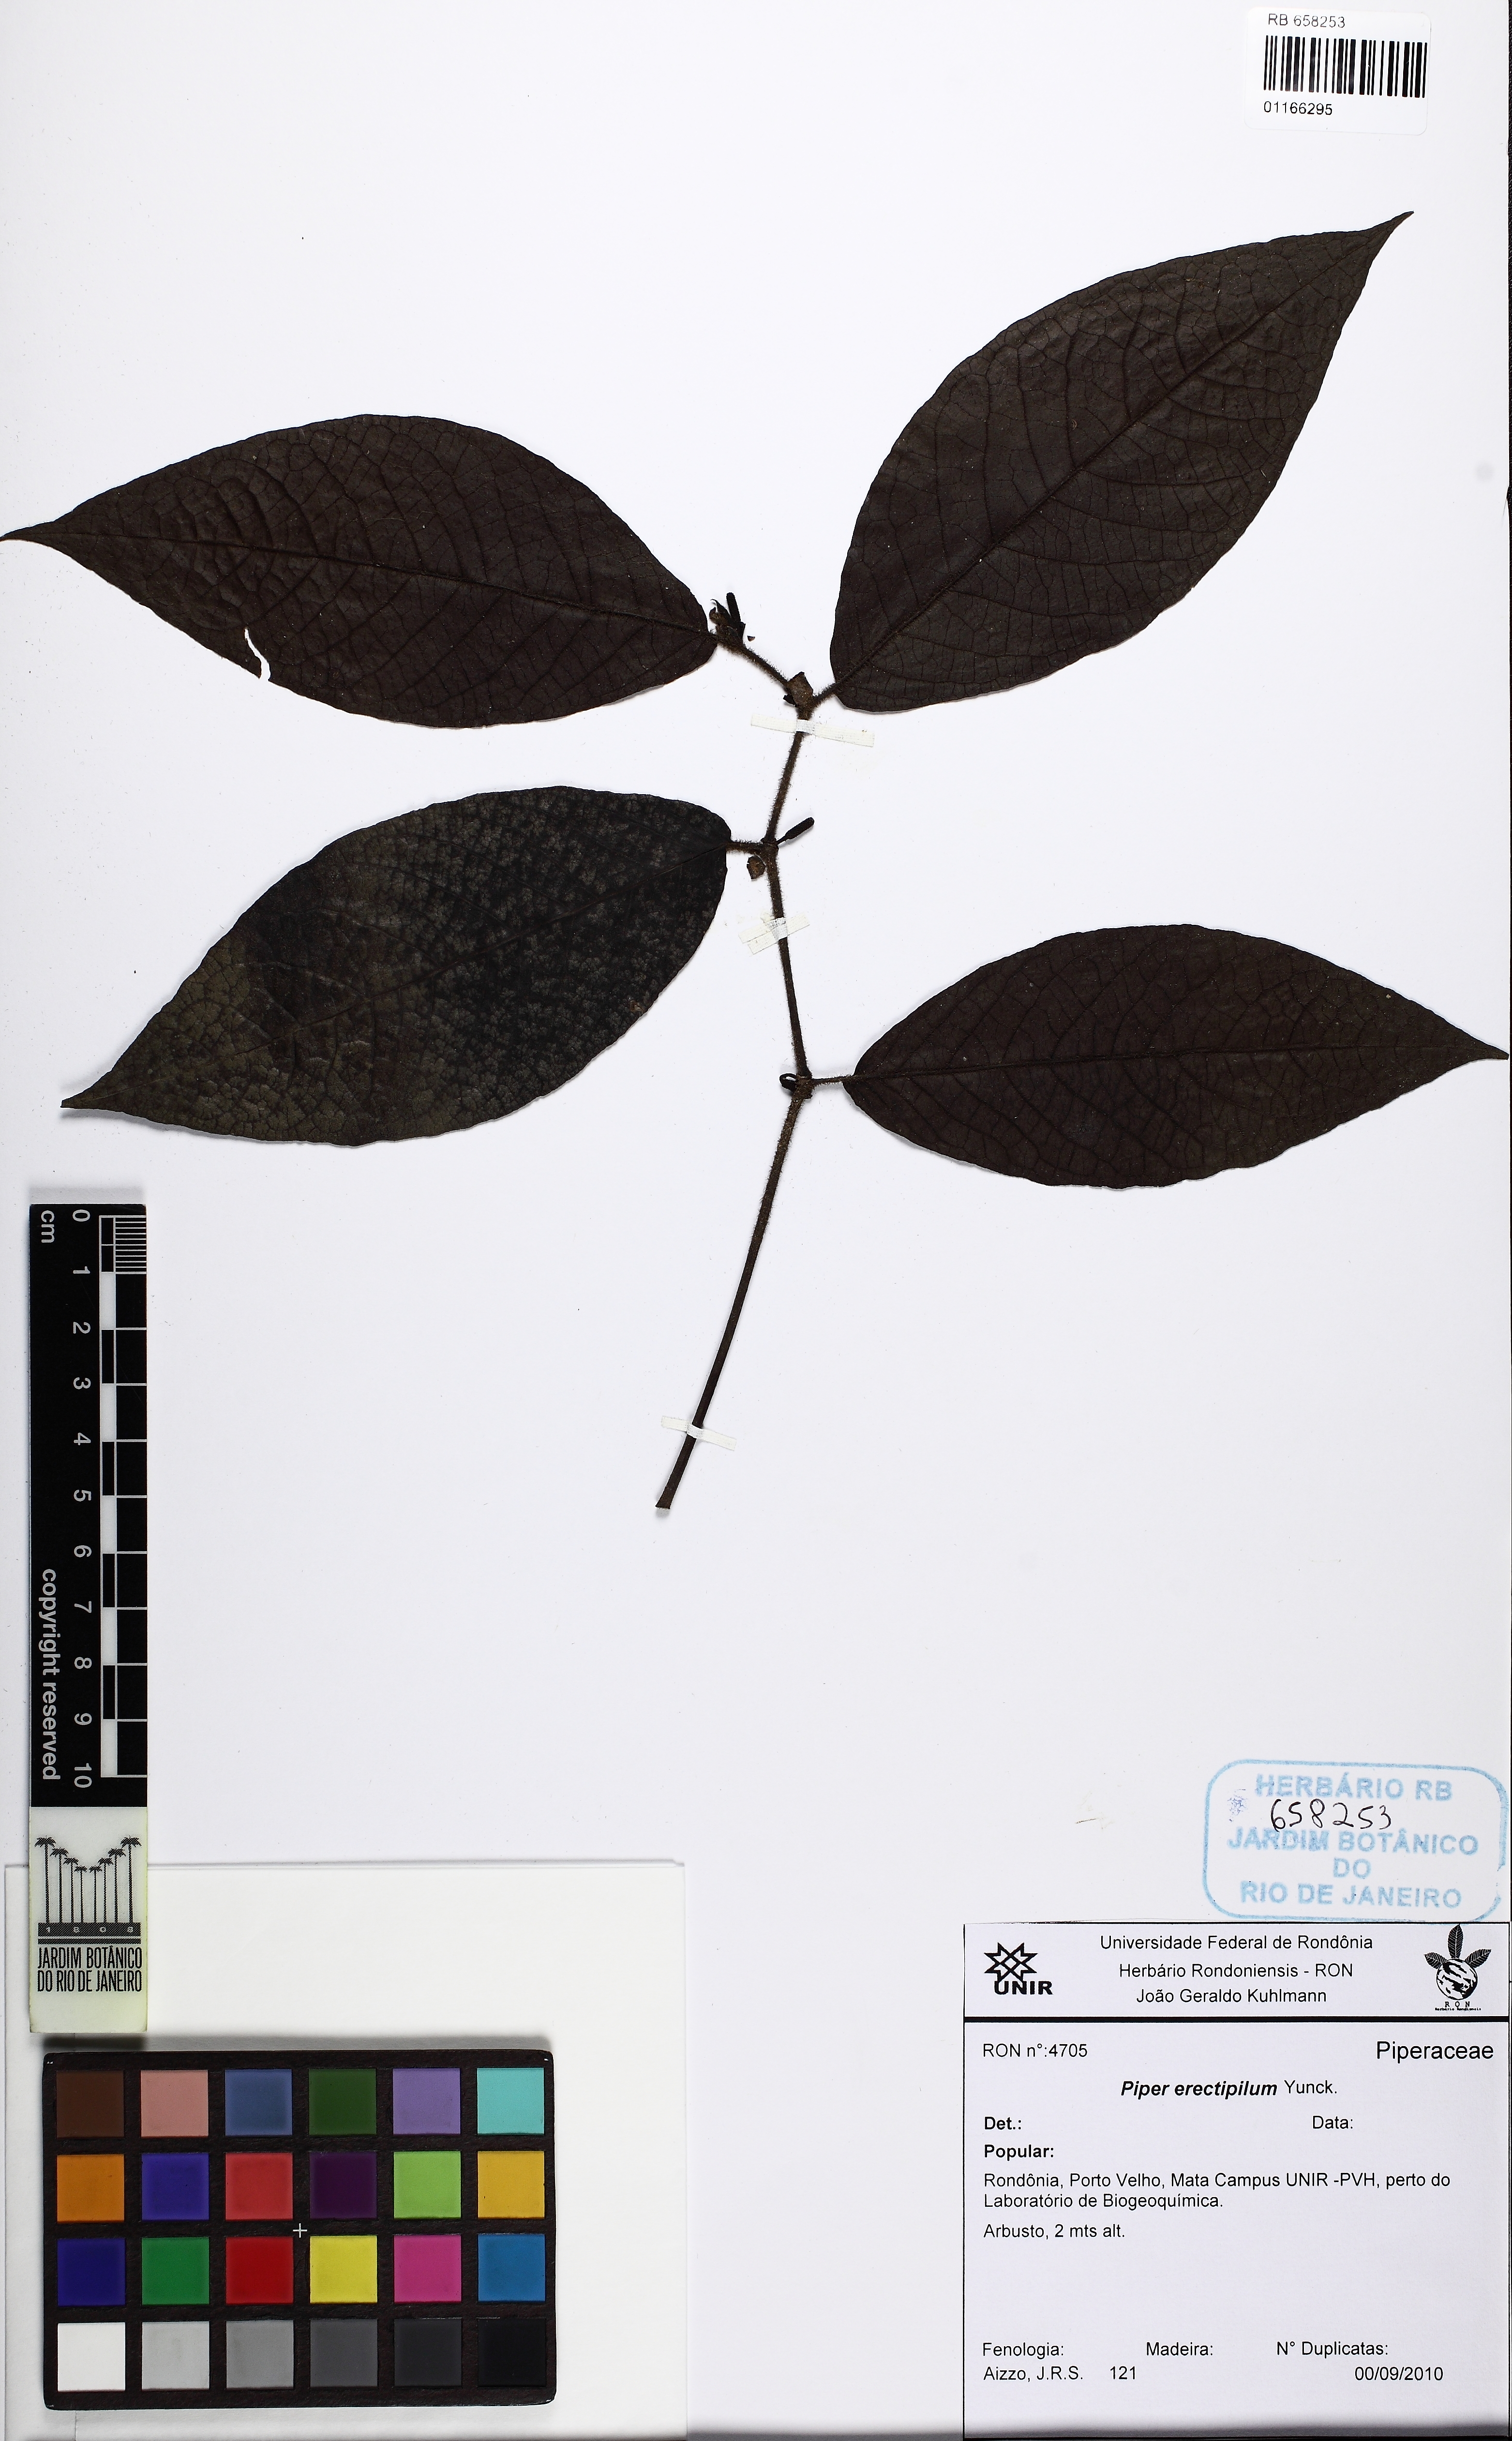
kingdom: Plantae
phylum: Tracheophyta
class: Magnoliopsida
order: Piperales
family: Piperaceae
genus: Piper
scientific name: Piper erectipilum
